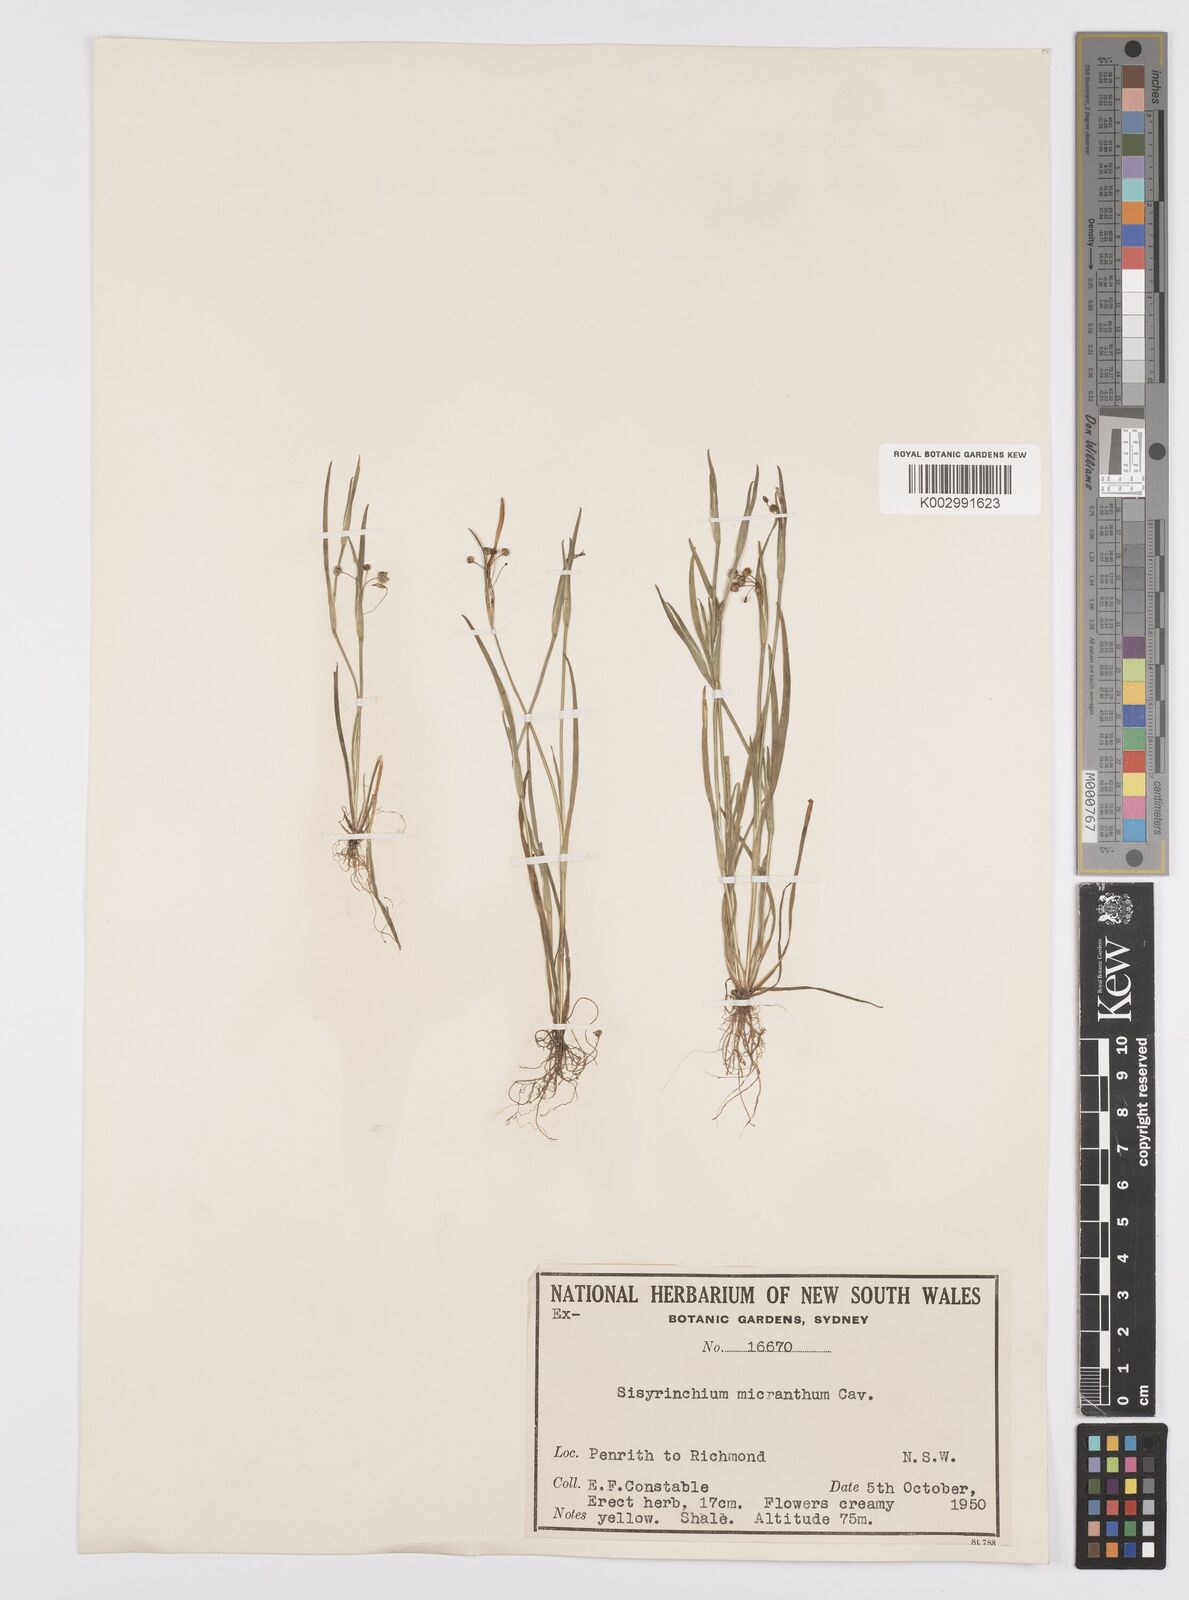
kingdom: Plantae
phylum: Tracheophyta
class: Liliopsida
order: Asparagales
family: Iridaceae
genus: Sisyrinchium
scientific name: Sisyrinchium micranthum
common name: Bermuda pigroot
